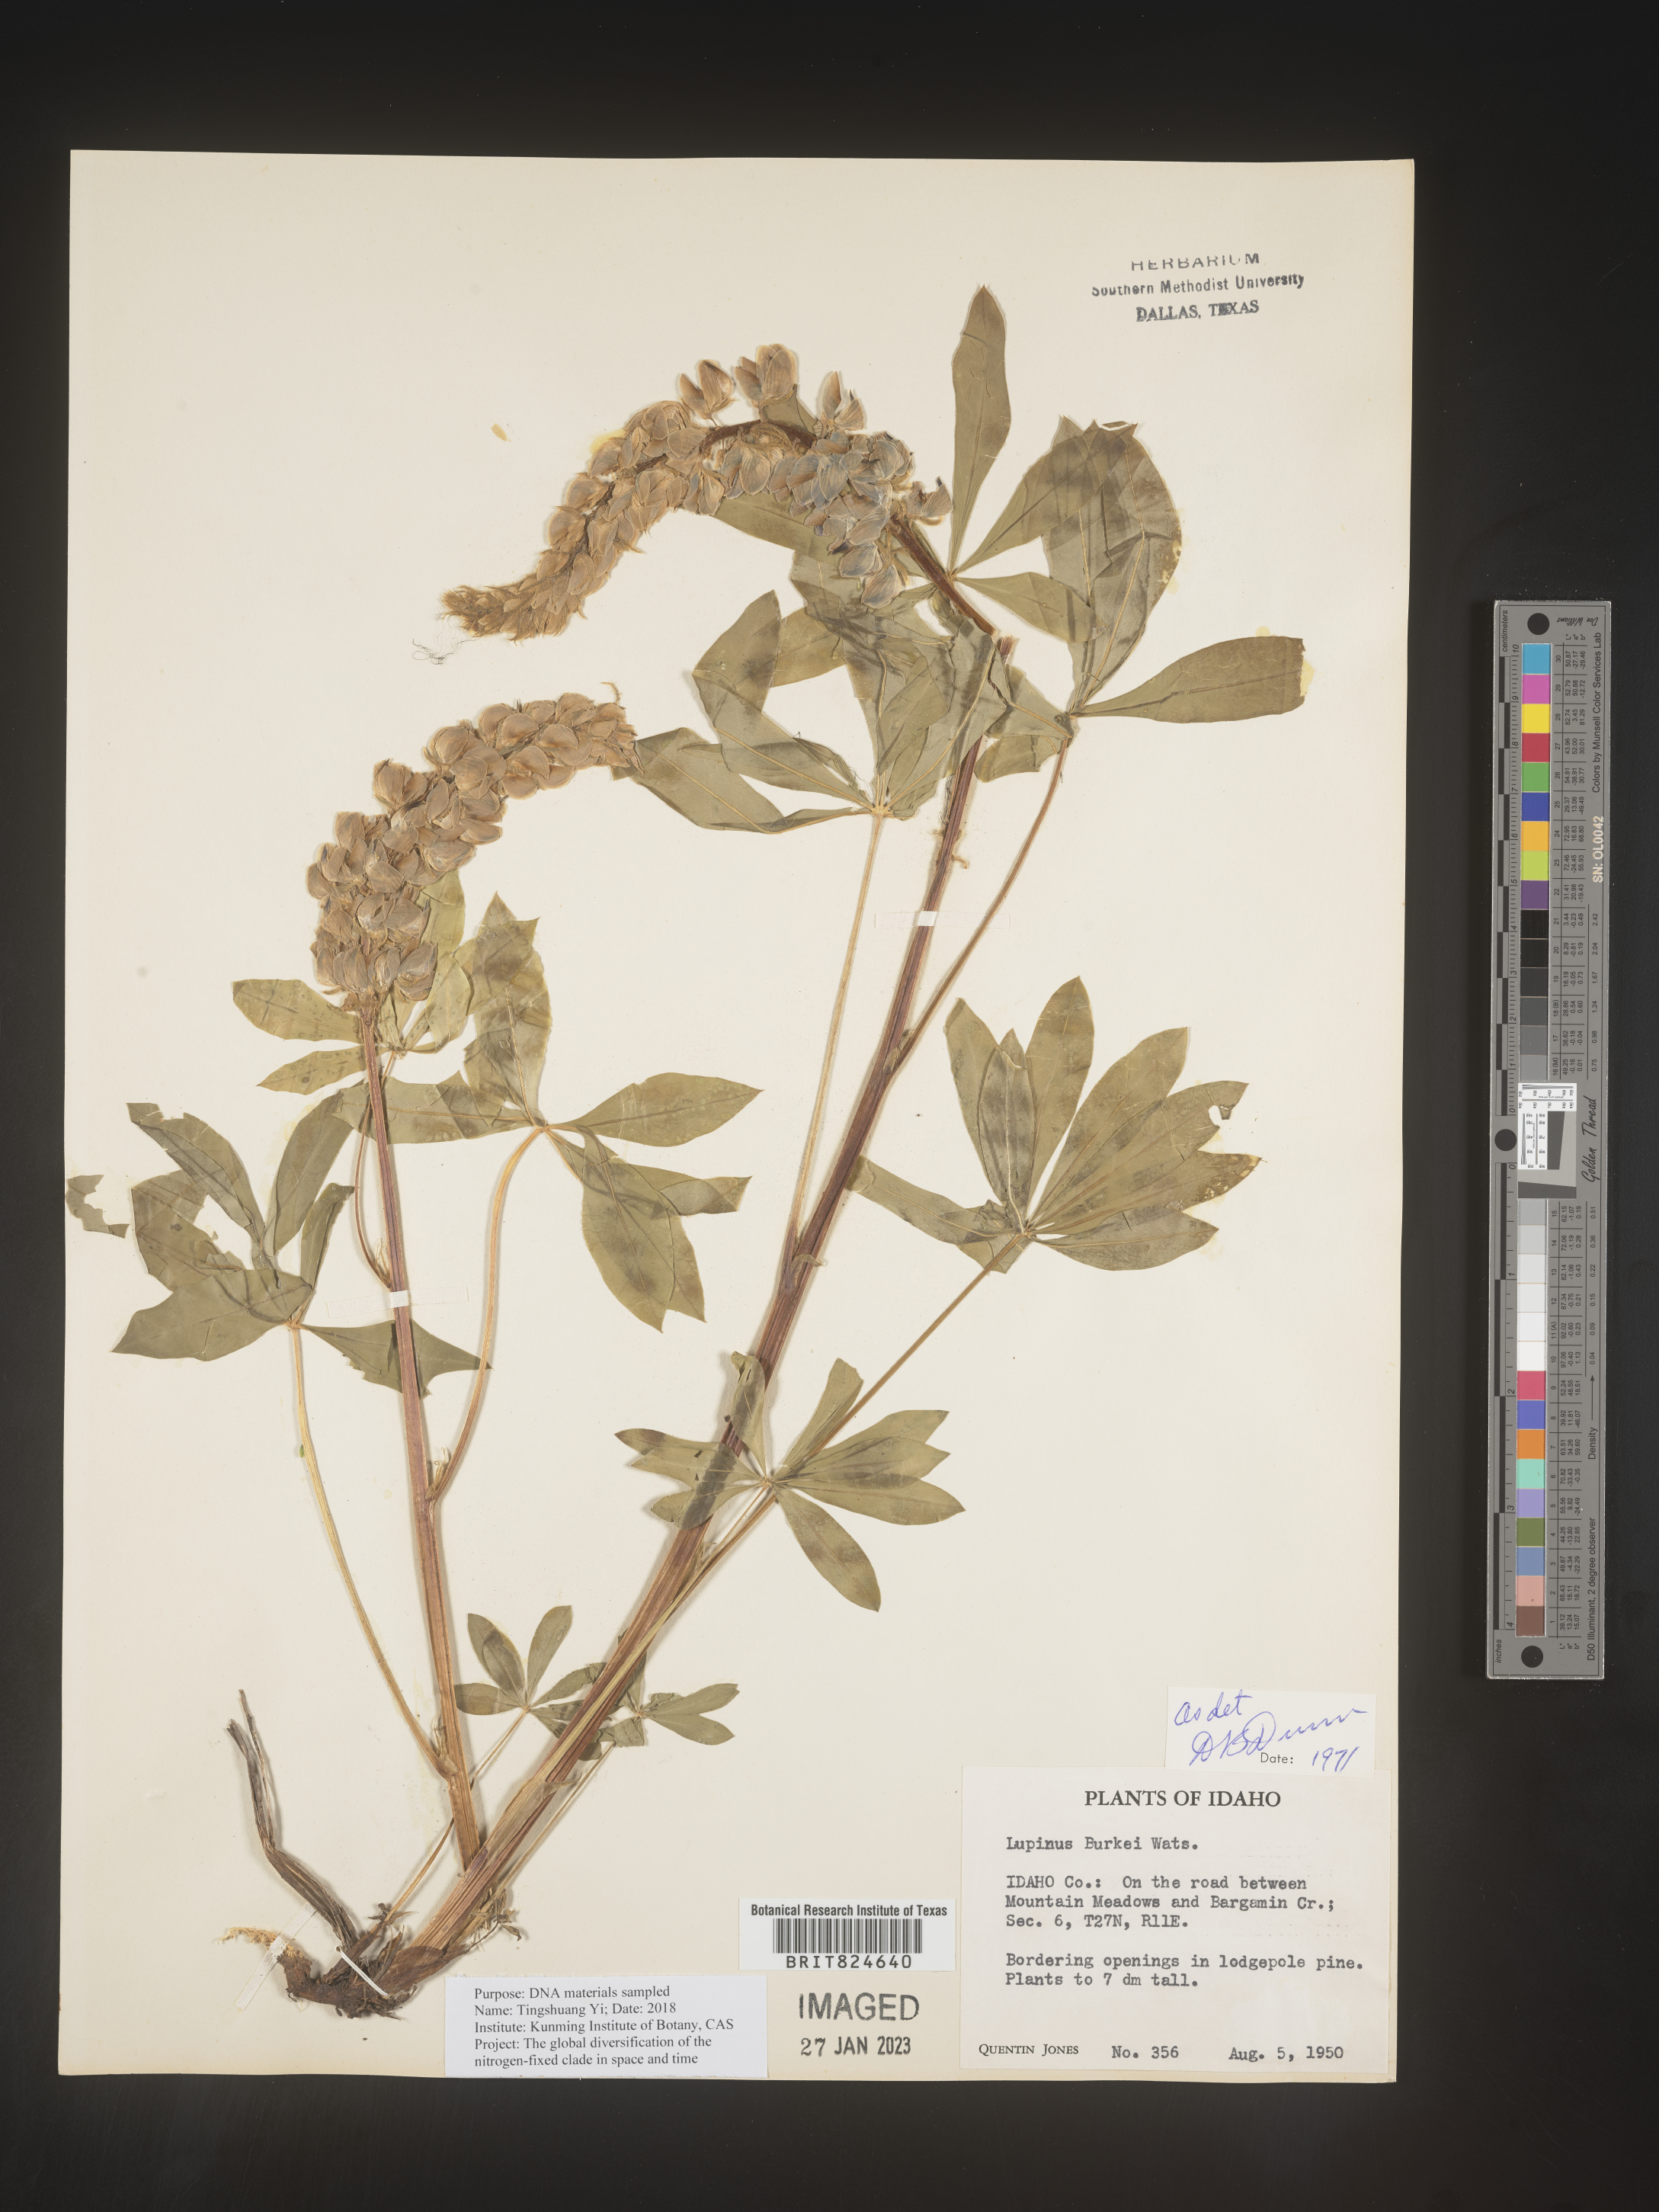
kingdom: Plantae
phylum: Tracheophyta
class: Magnoliopsida
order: Fabales
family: Fabaceae
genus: Lupinus
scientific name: Lupinus
